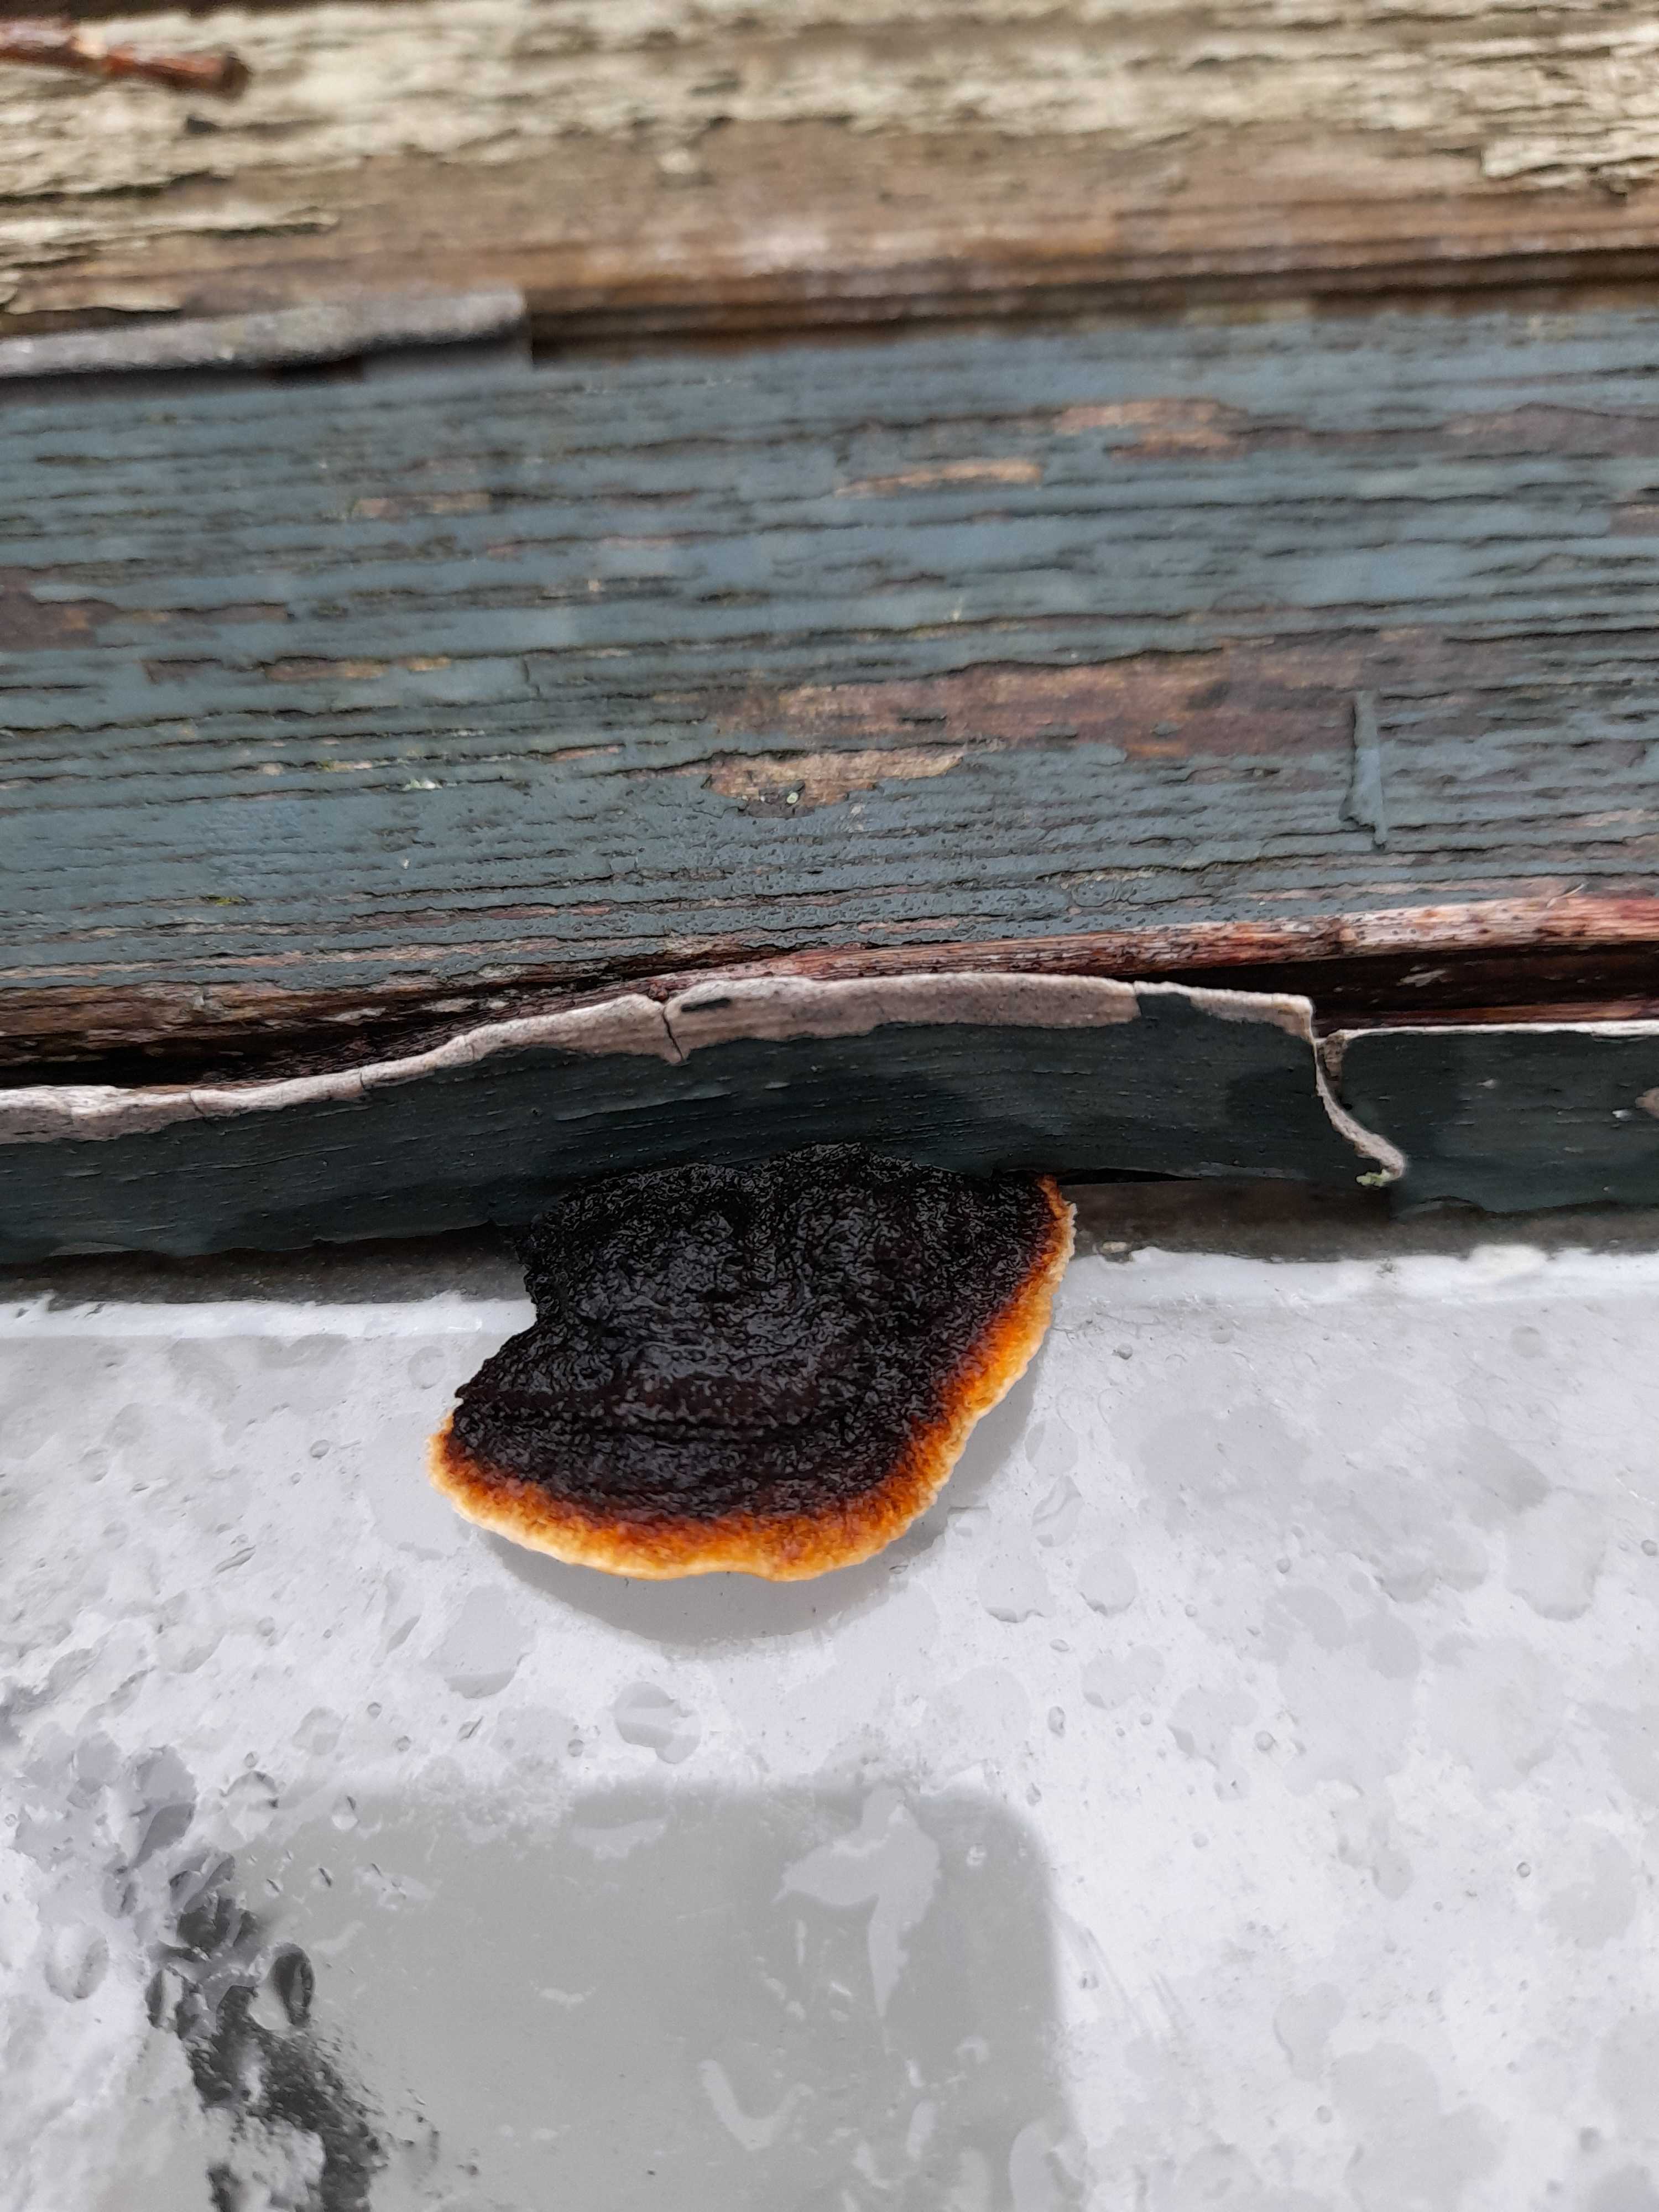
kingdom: Fungi
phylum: Basidiomycota
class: Agaricomycetes
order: Gloeophyllales
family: Gloeophyllaceae
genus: Gloeophyllum
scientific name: Gloeophyllum sepiarium
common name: fyrre-korkhat
